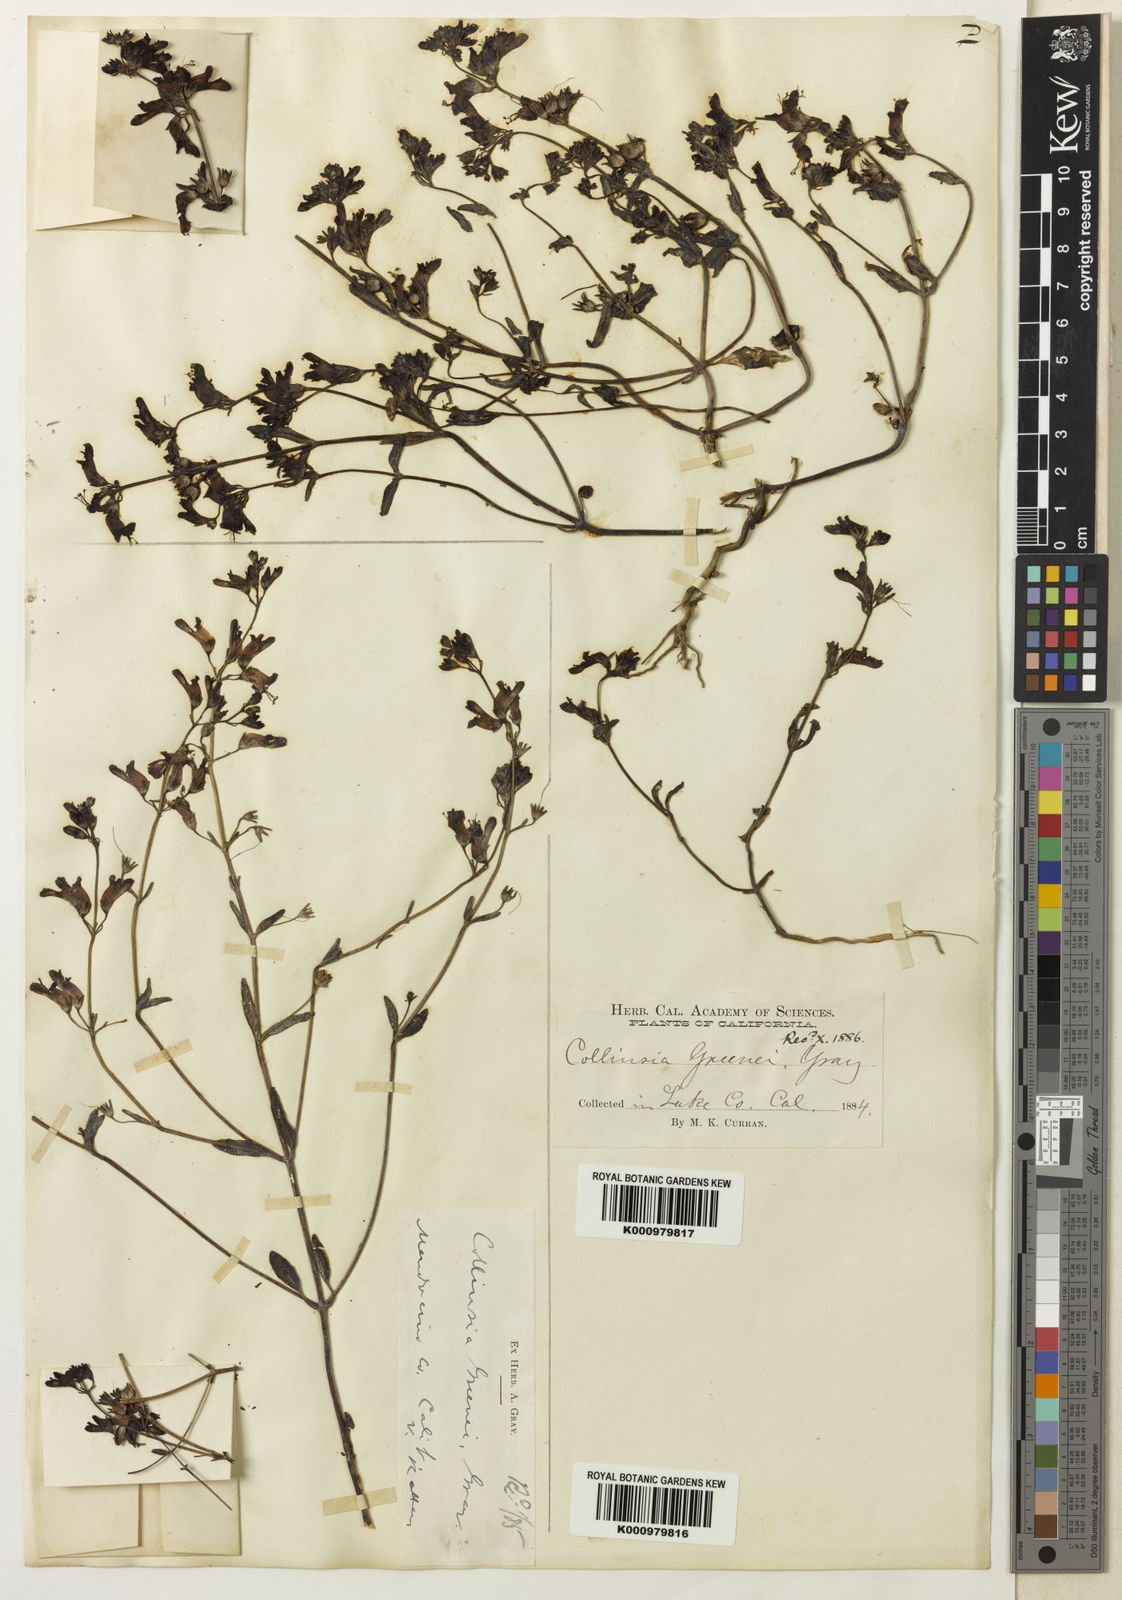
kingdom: Plantae
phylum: Tracheophyta
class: Magnoliopsida
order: Lamiales
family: Plantaginaceae
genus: Collinsia
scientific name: Collinsia greenei
